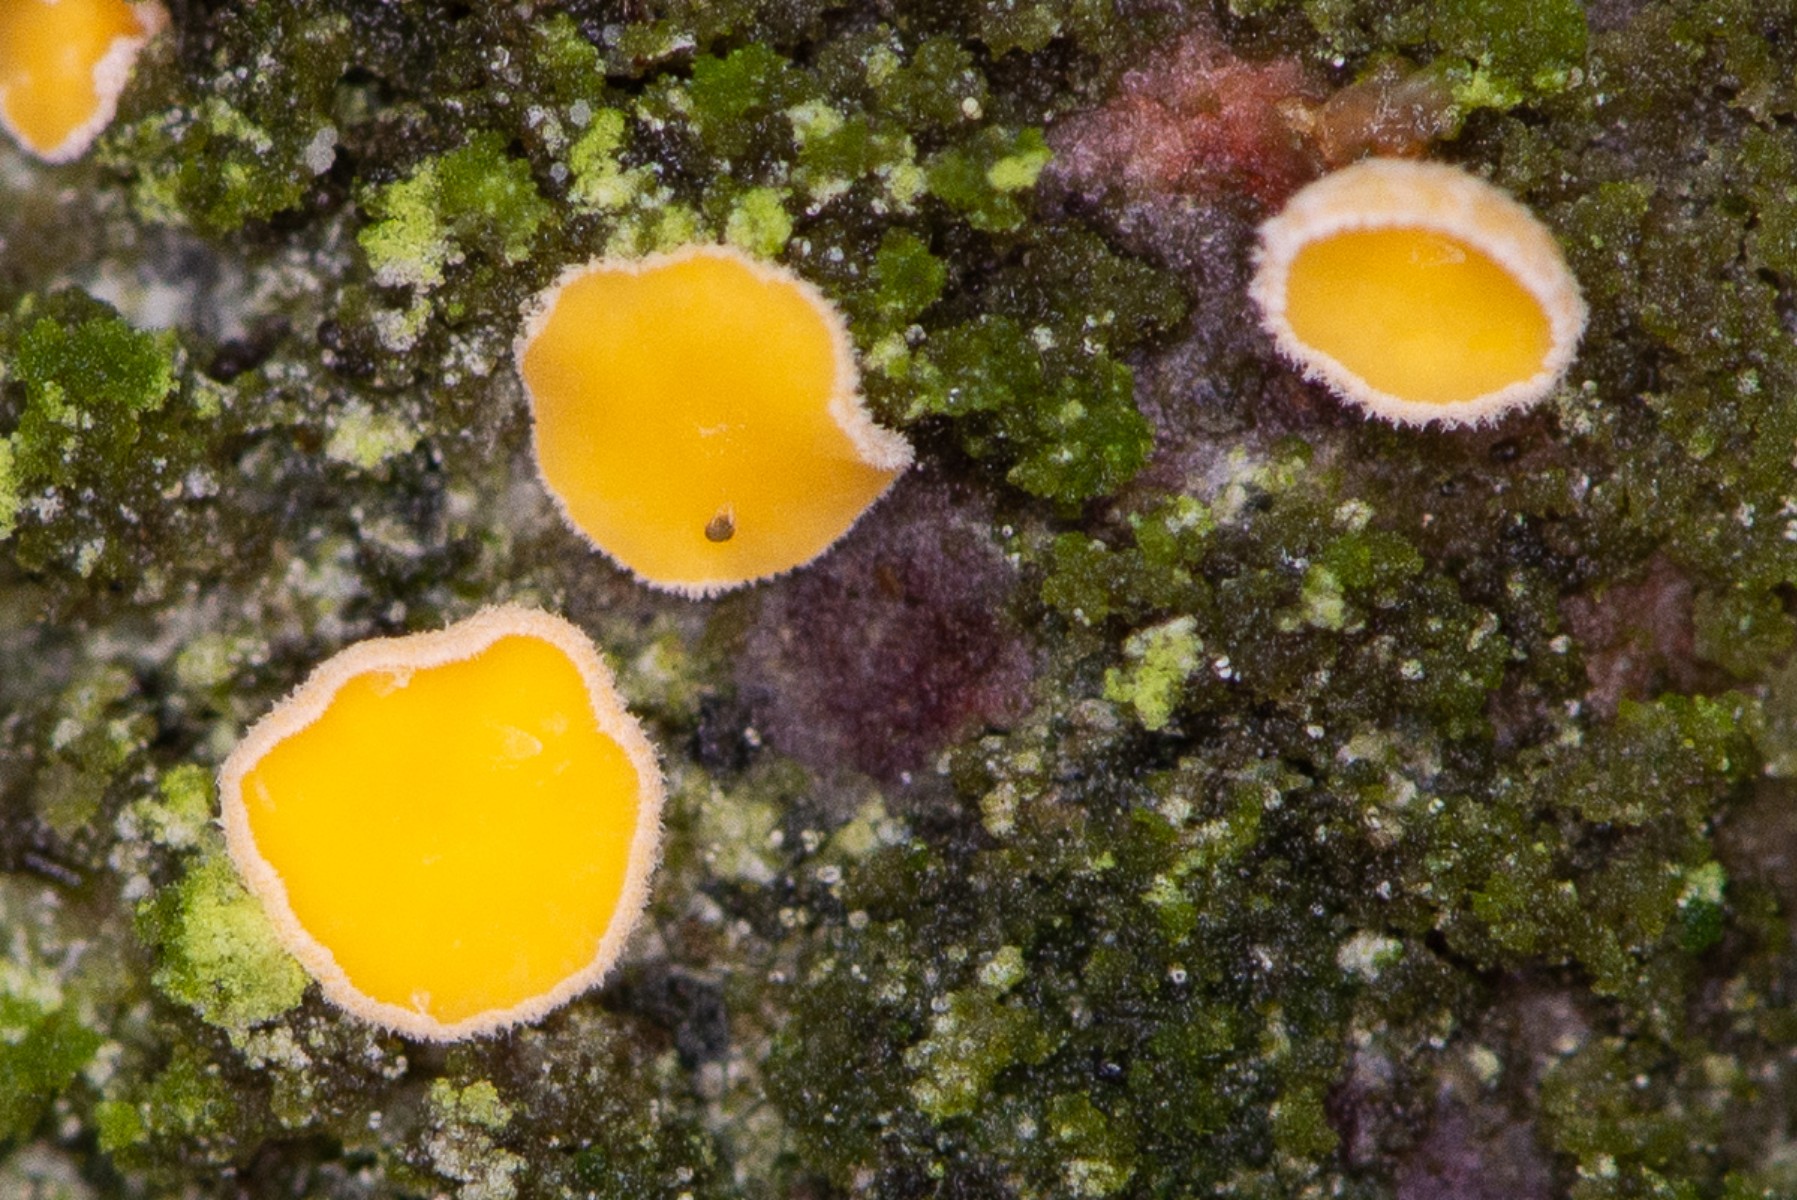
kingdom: Fungi
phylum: Ascomycota
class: Leotiomycetes
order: Helotiales
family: Lachnaceae
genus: Lachnellula
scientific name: Lachnellula
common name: frynseskive
